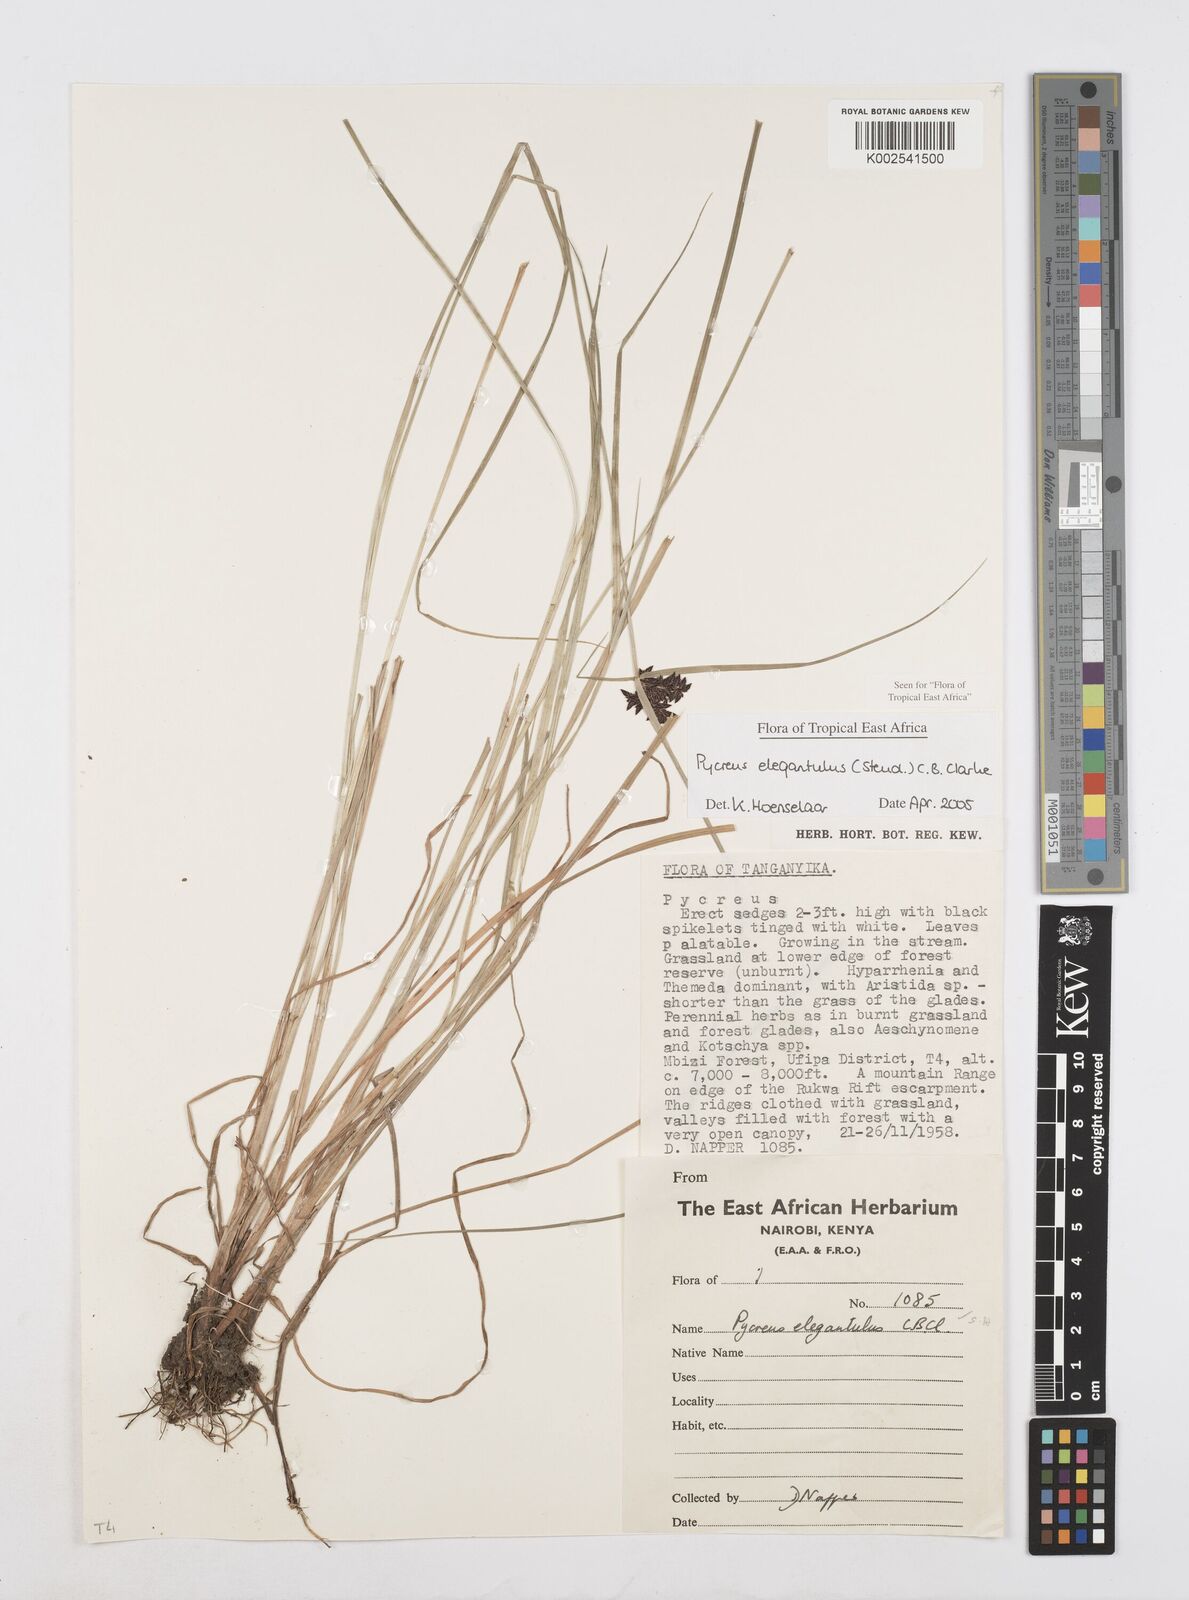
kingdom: Plantae
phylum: Tracheophyta
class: Liliopsida
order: Poales
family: Cyperaceae
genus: Cyperus
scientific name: Cyperus elegantulus
